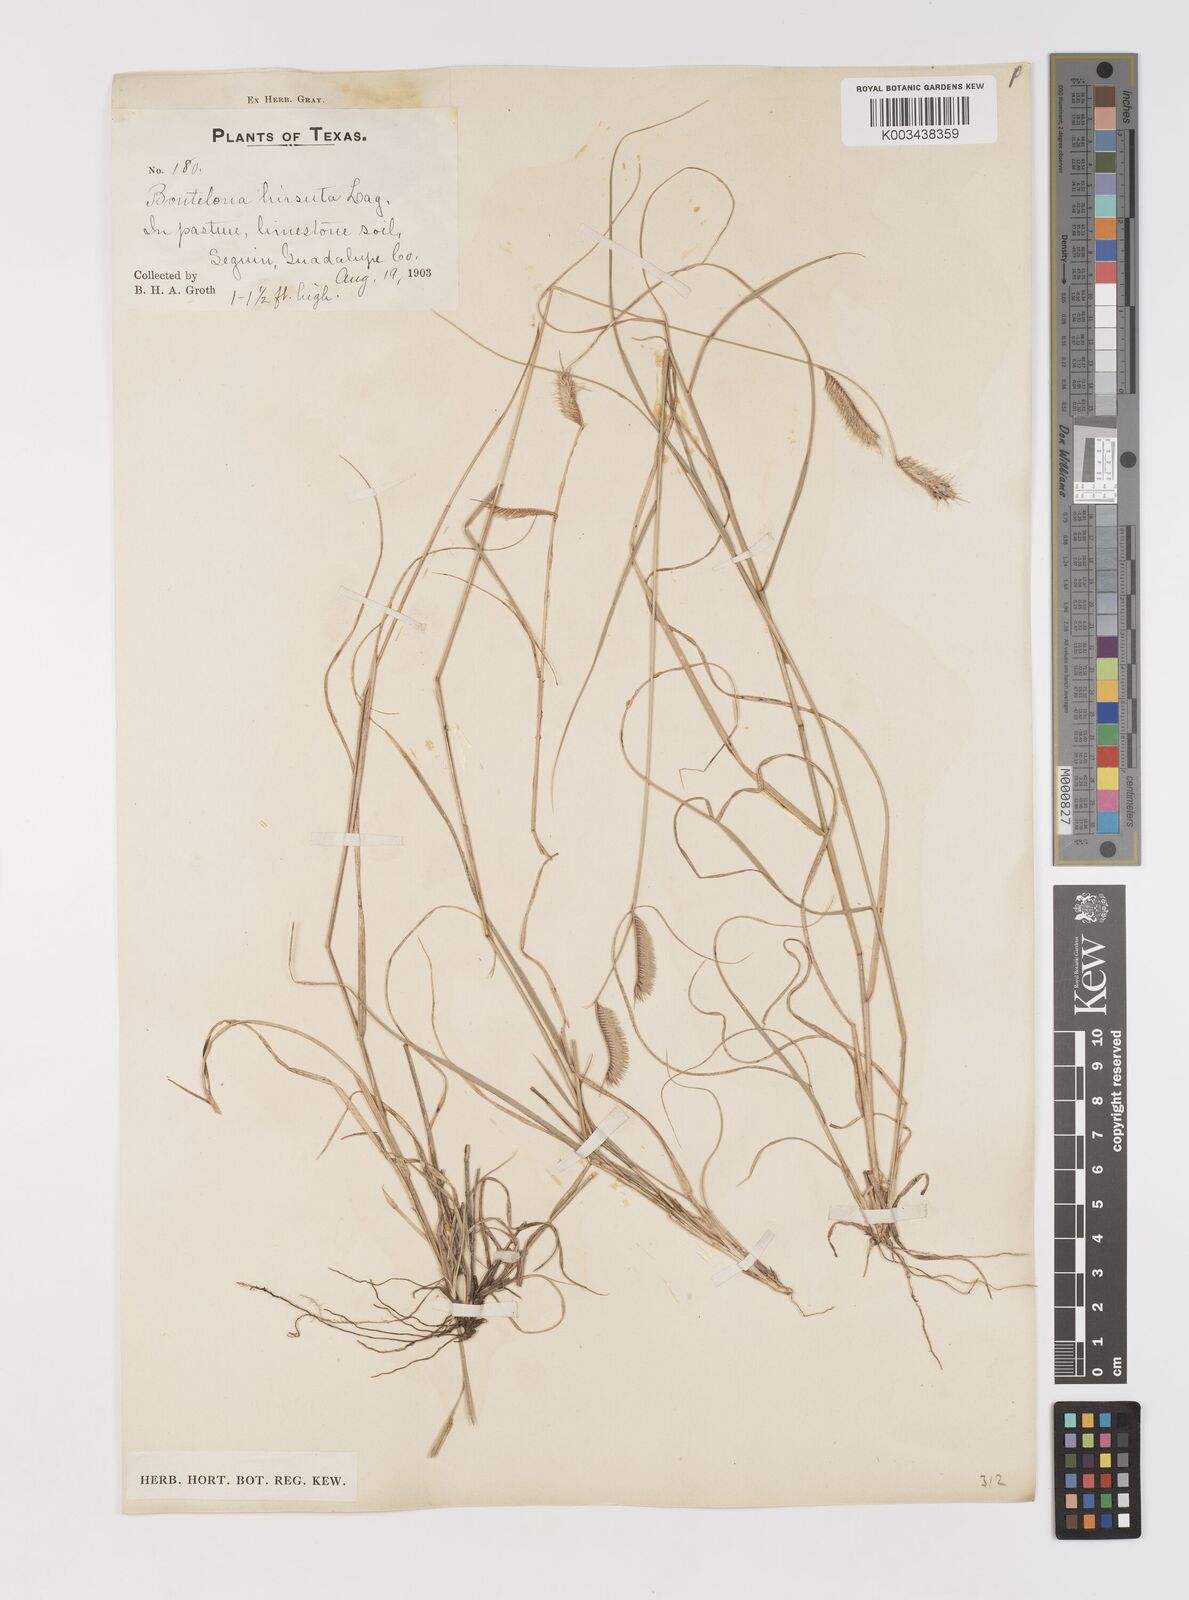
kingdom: Plantae
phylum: Tracheophyta
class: Liliopsida
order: Poales
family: Poaceae
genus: Bouteloua
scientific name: Bouteloua hirsuta
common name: Hairy grama
